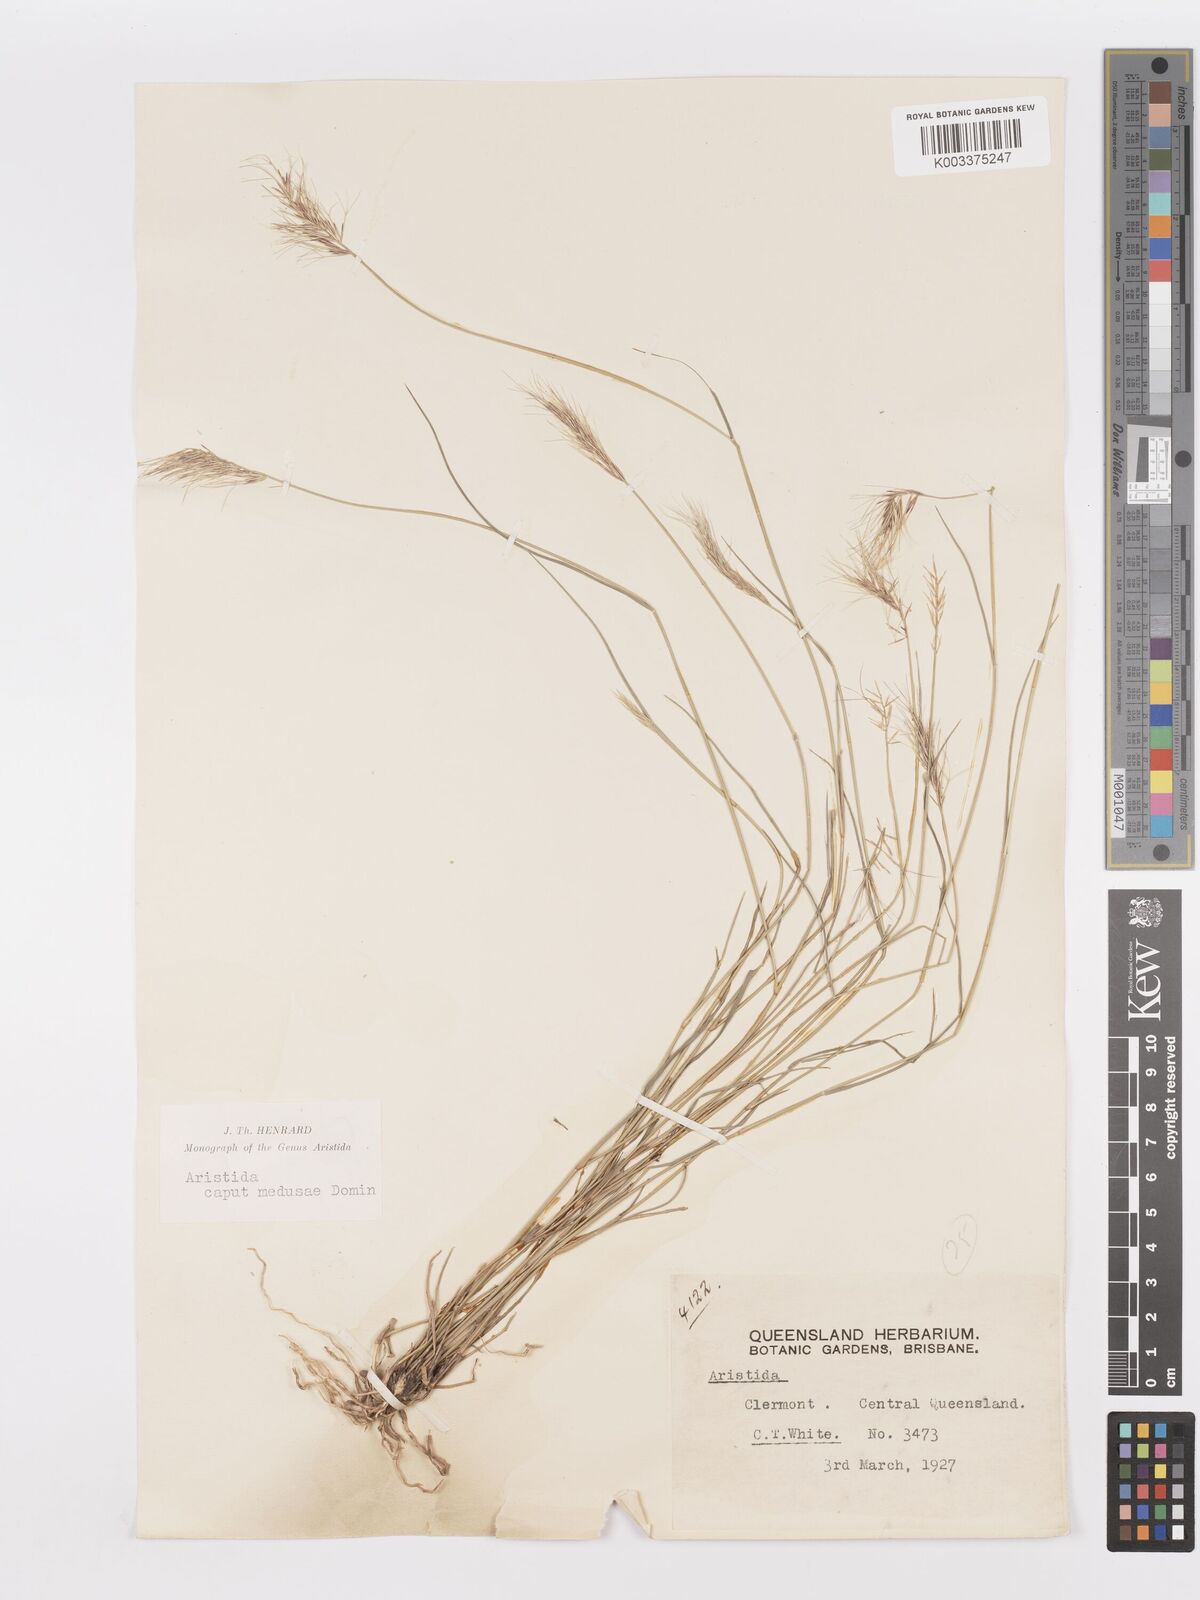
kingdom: Plantae
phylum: Tracheophyta
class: Liliopsida
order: Poales
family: Poaceae
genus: Aristida
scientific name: Aristida caput-medusae
